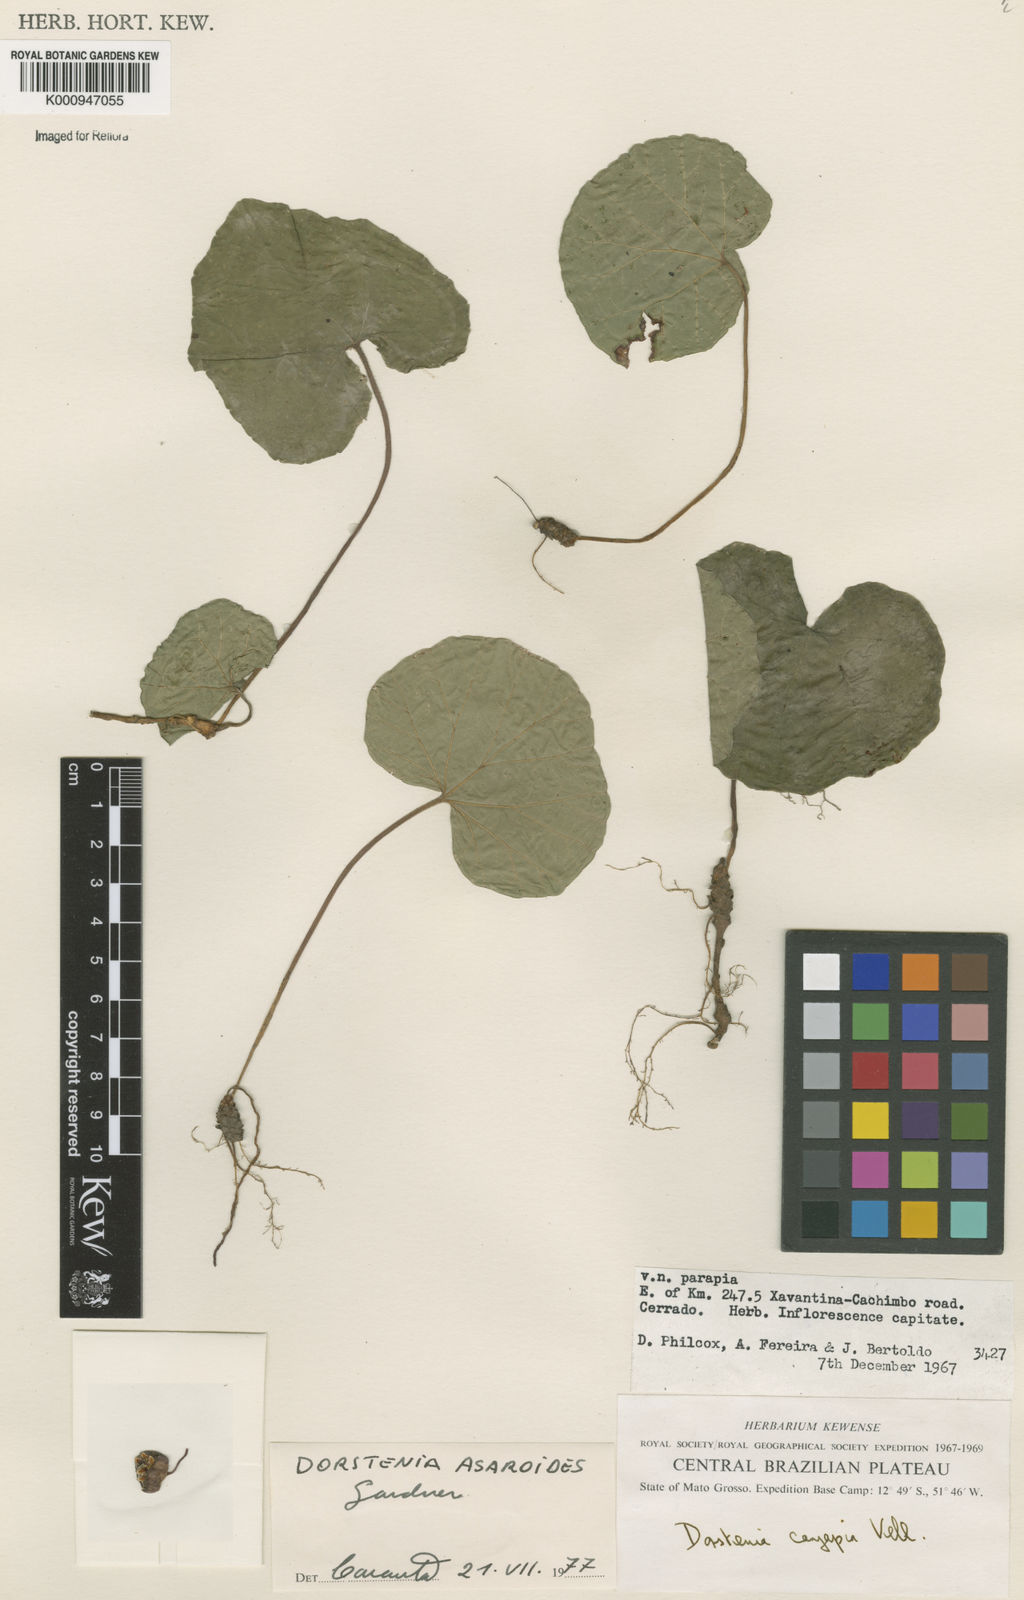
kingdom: Plantae
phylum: Tracheophyta
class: Magnoliopsida
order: Rosales
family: Moraceae
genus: Dorstenia
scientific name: Dorstenia
